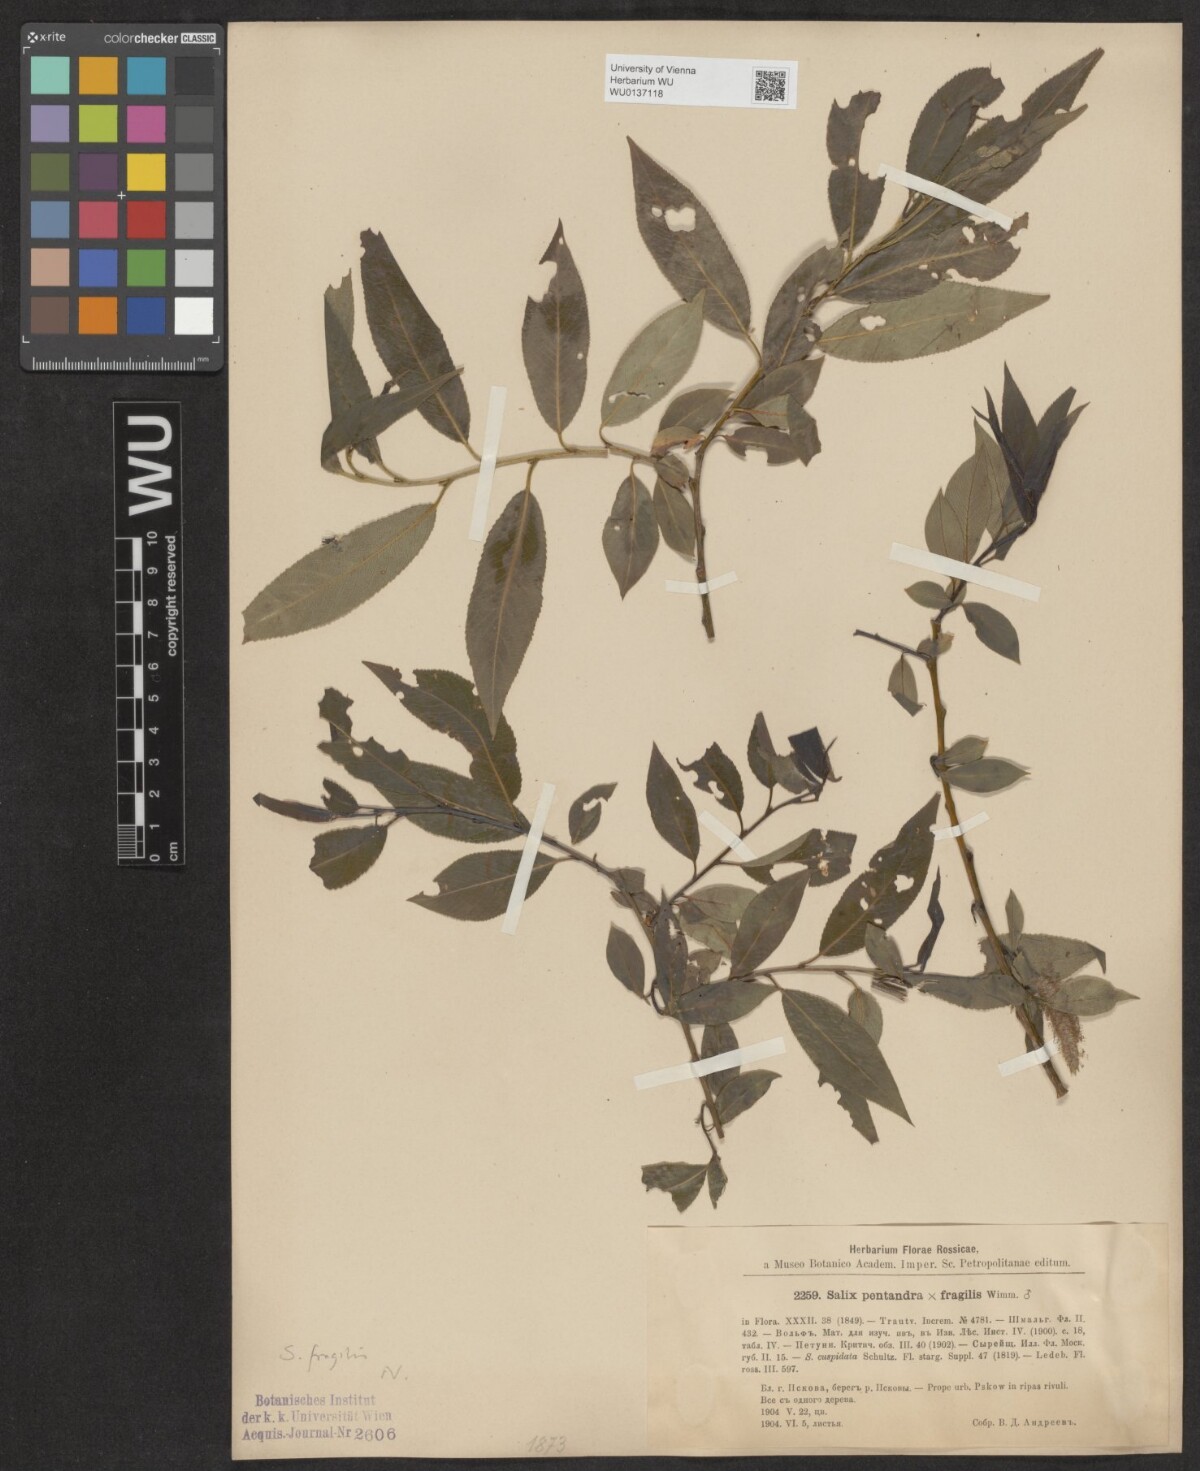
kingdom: Plantae
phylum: Tracheophyta
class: Magnoliopsida
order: Malpighiales
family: Salicaceae
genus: Salix
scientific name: Salix fragilis
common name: Crack willow
